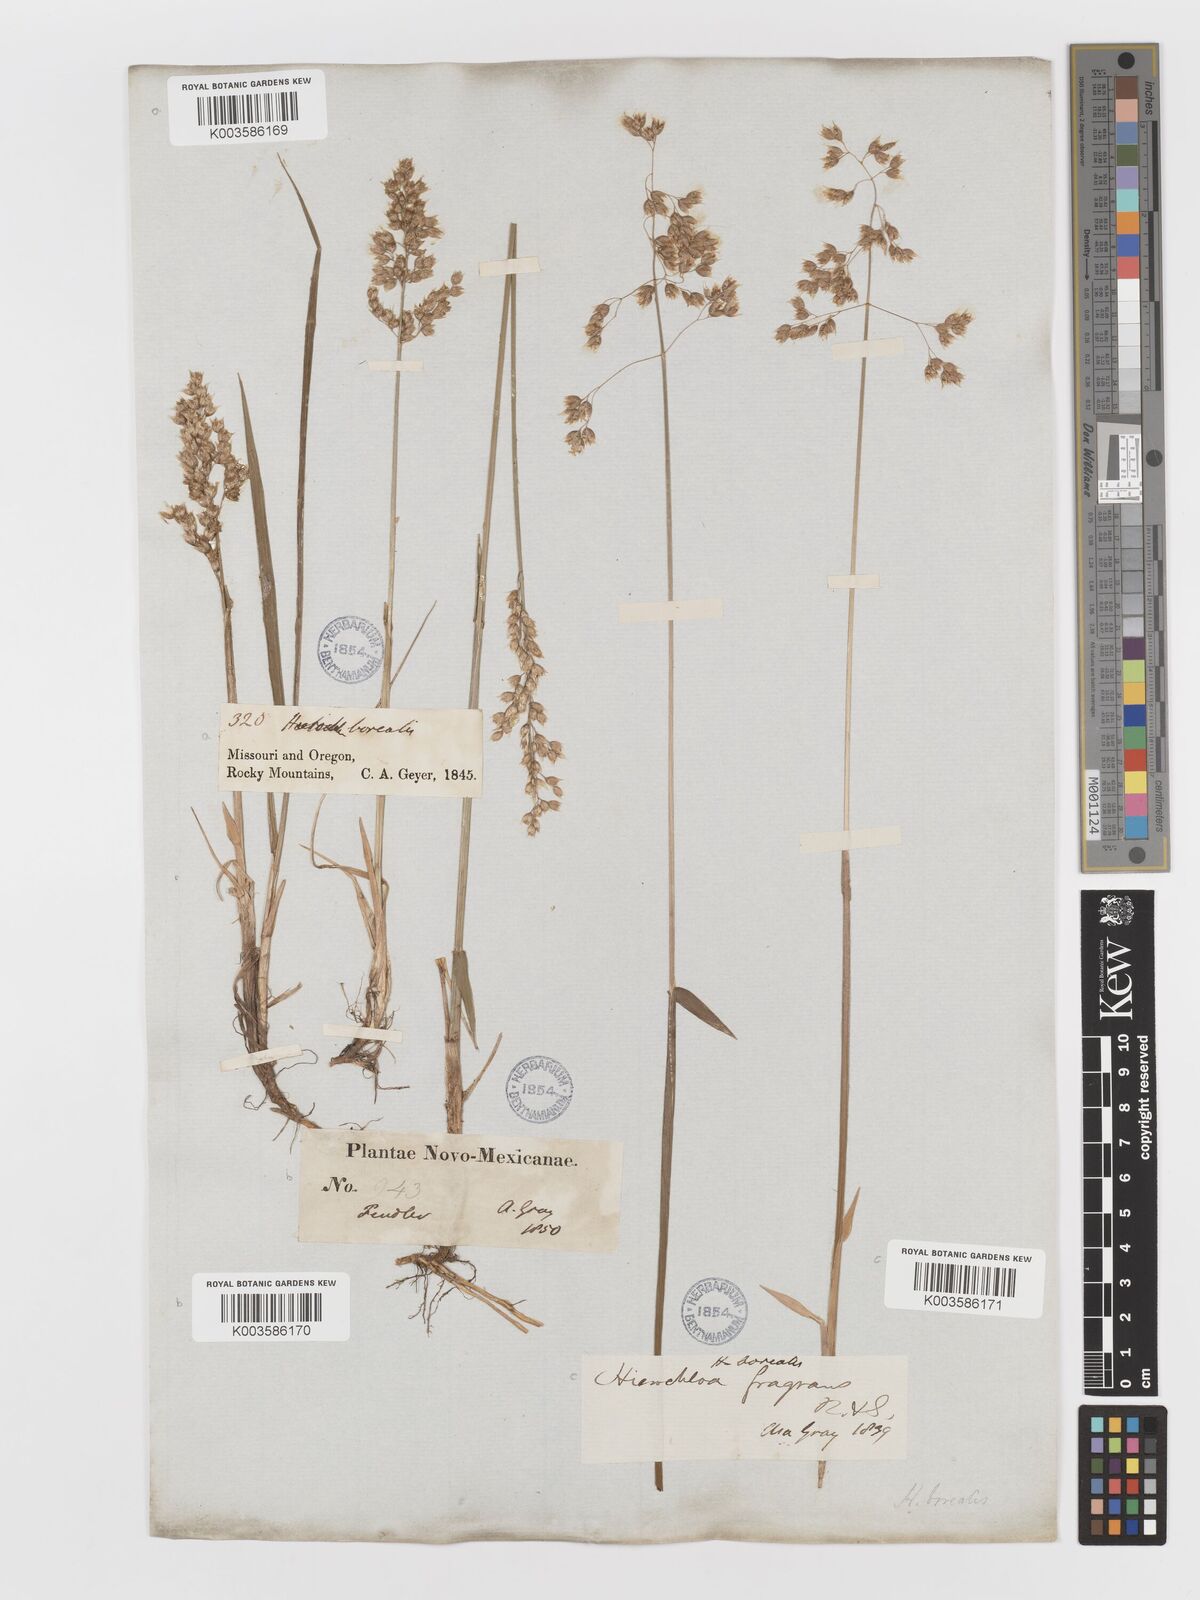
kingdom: Plantae
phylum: Tracheophyta
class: Liliopsida
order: Poales
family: Poaceae
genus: Anthoxanthum
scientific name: Anthoxanthum nitens
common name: Holy grass
